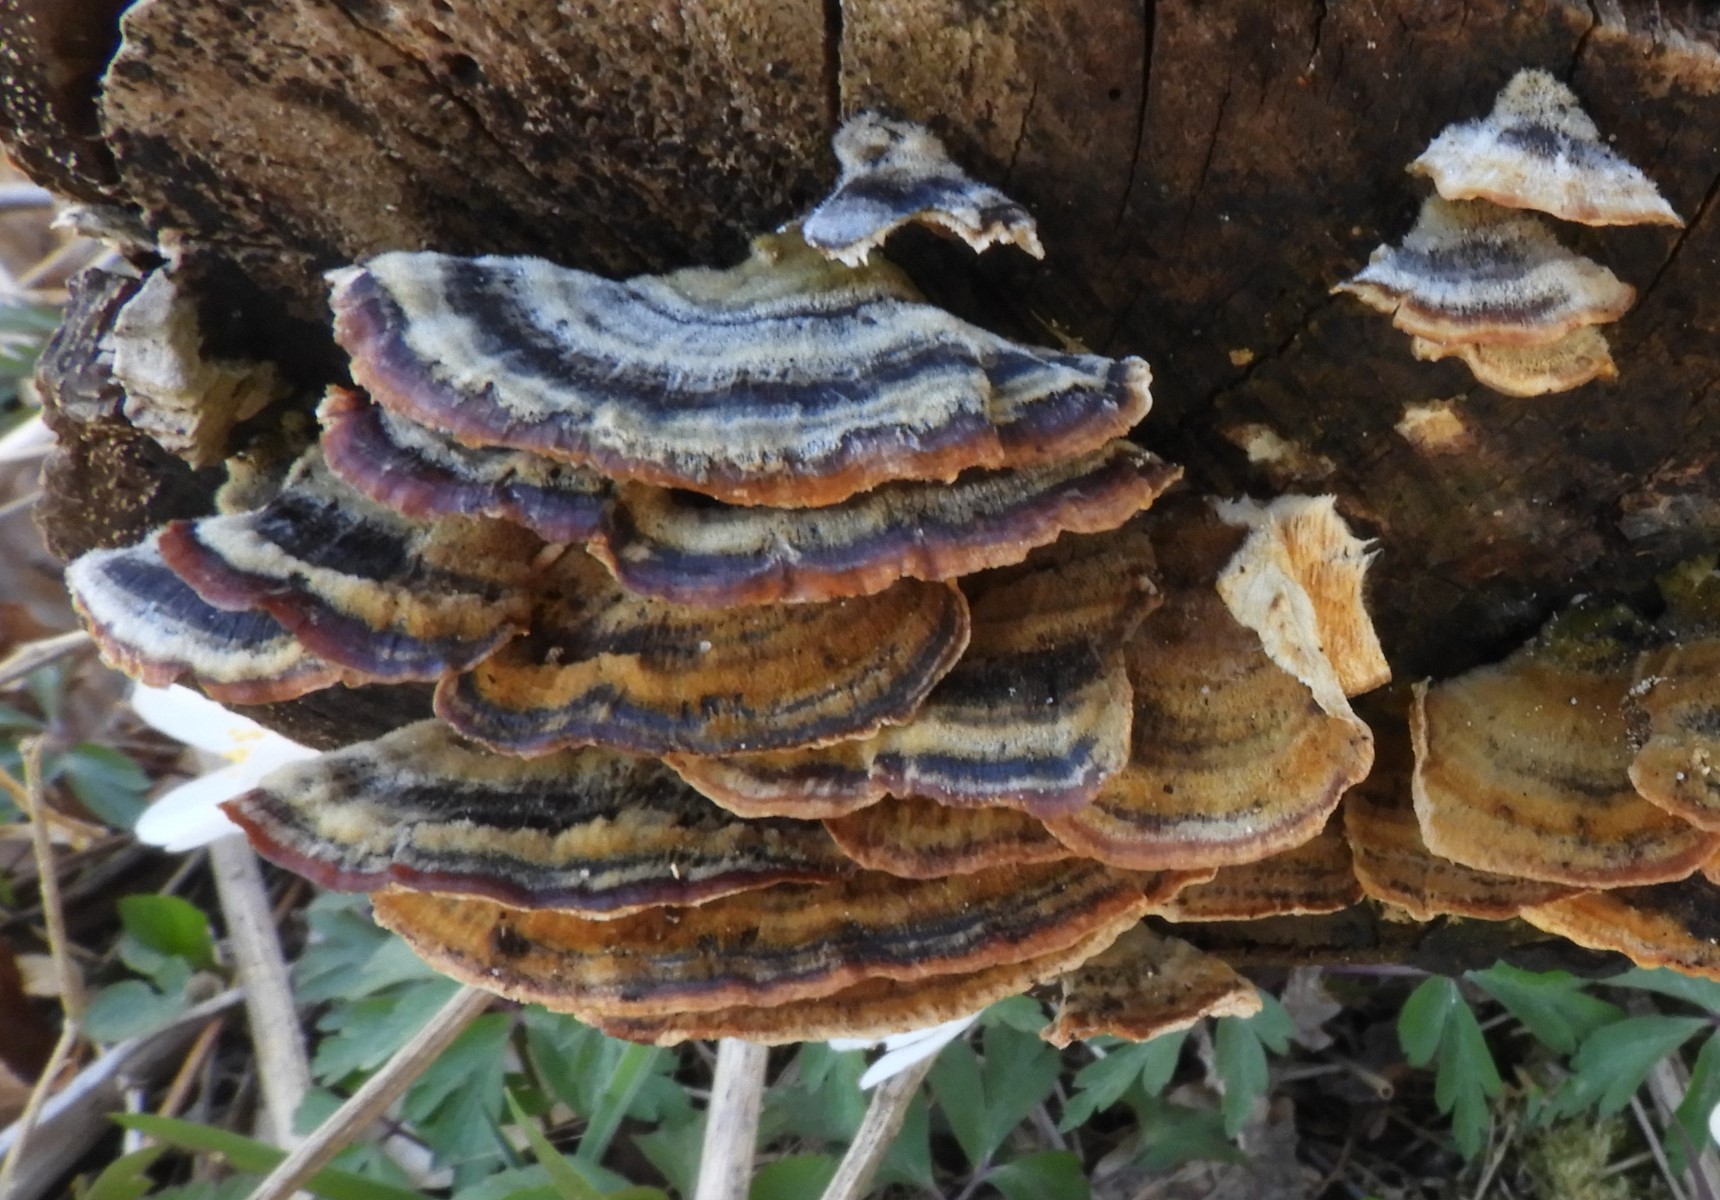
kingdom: Fungi
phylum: Basidiomycota
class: Agaricomycetes
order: Polyporales
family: Polyporaceae
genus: Trametes
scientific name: Trametes versicolor
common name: broget læderporesvamp
